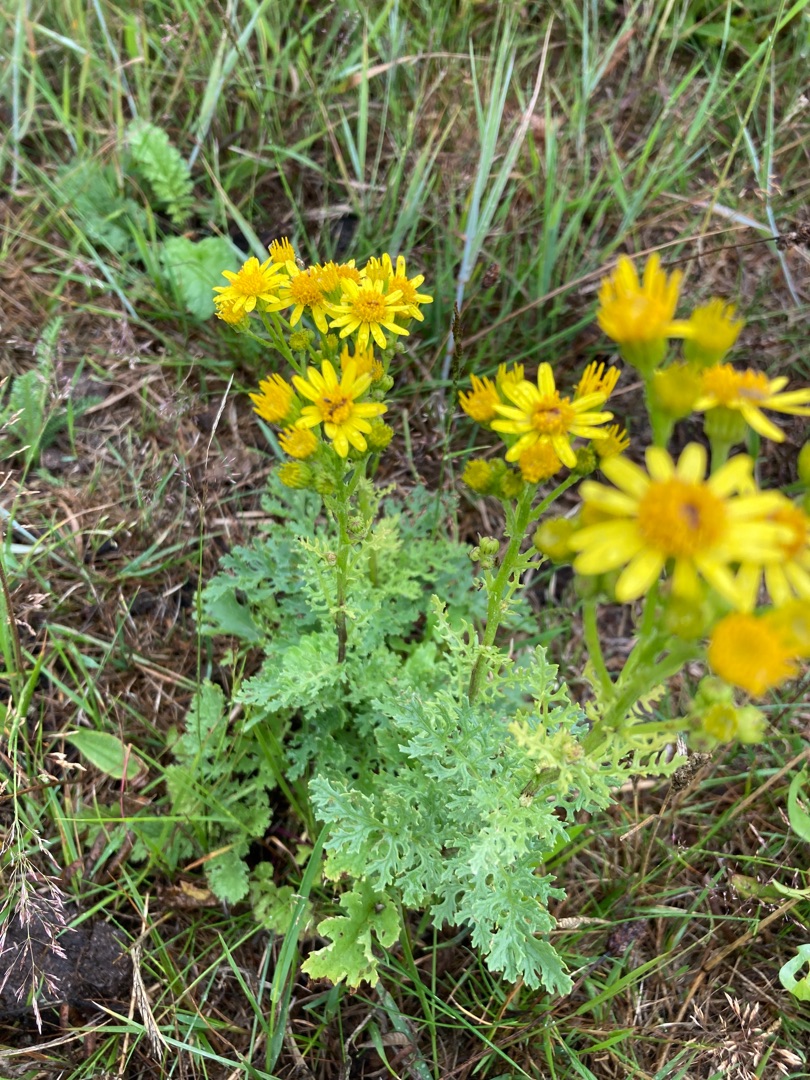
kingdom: Plantae
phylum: Tracheophyta
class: Magnoliopsida
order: Asterales
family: Asteraceae
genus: Jacobaea
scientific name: Jacobaea vulgaris
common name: Eng-brandbæger
